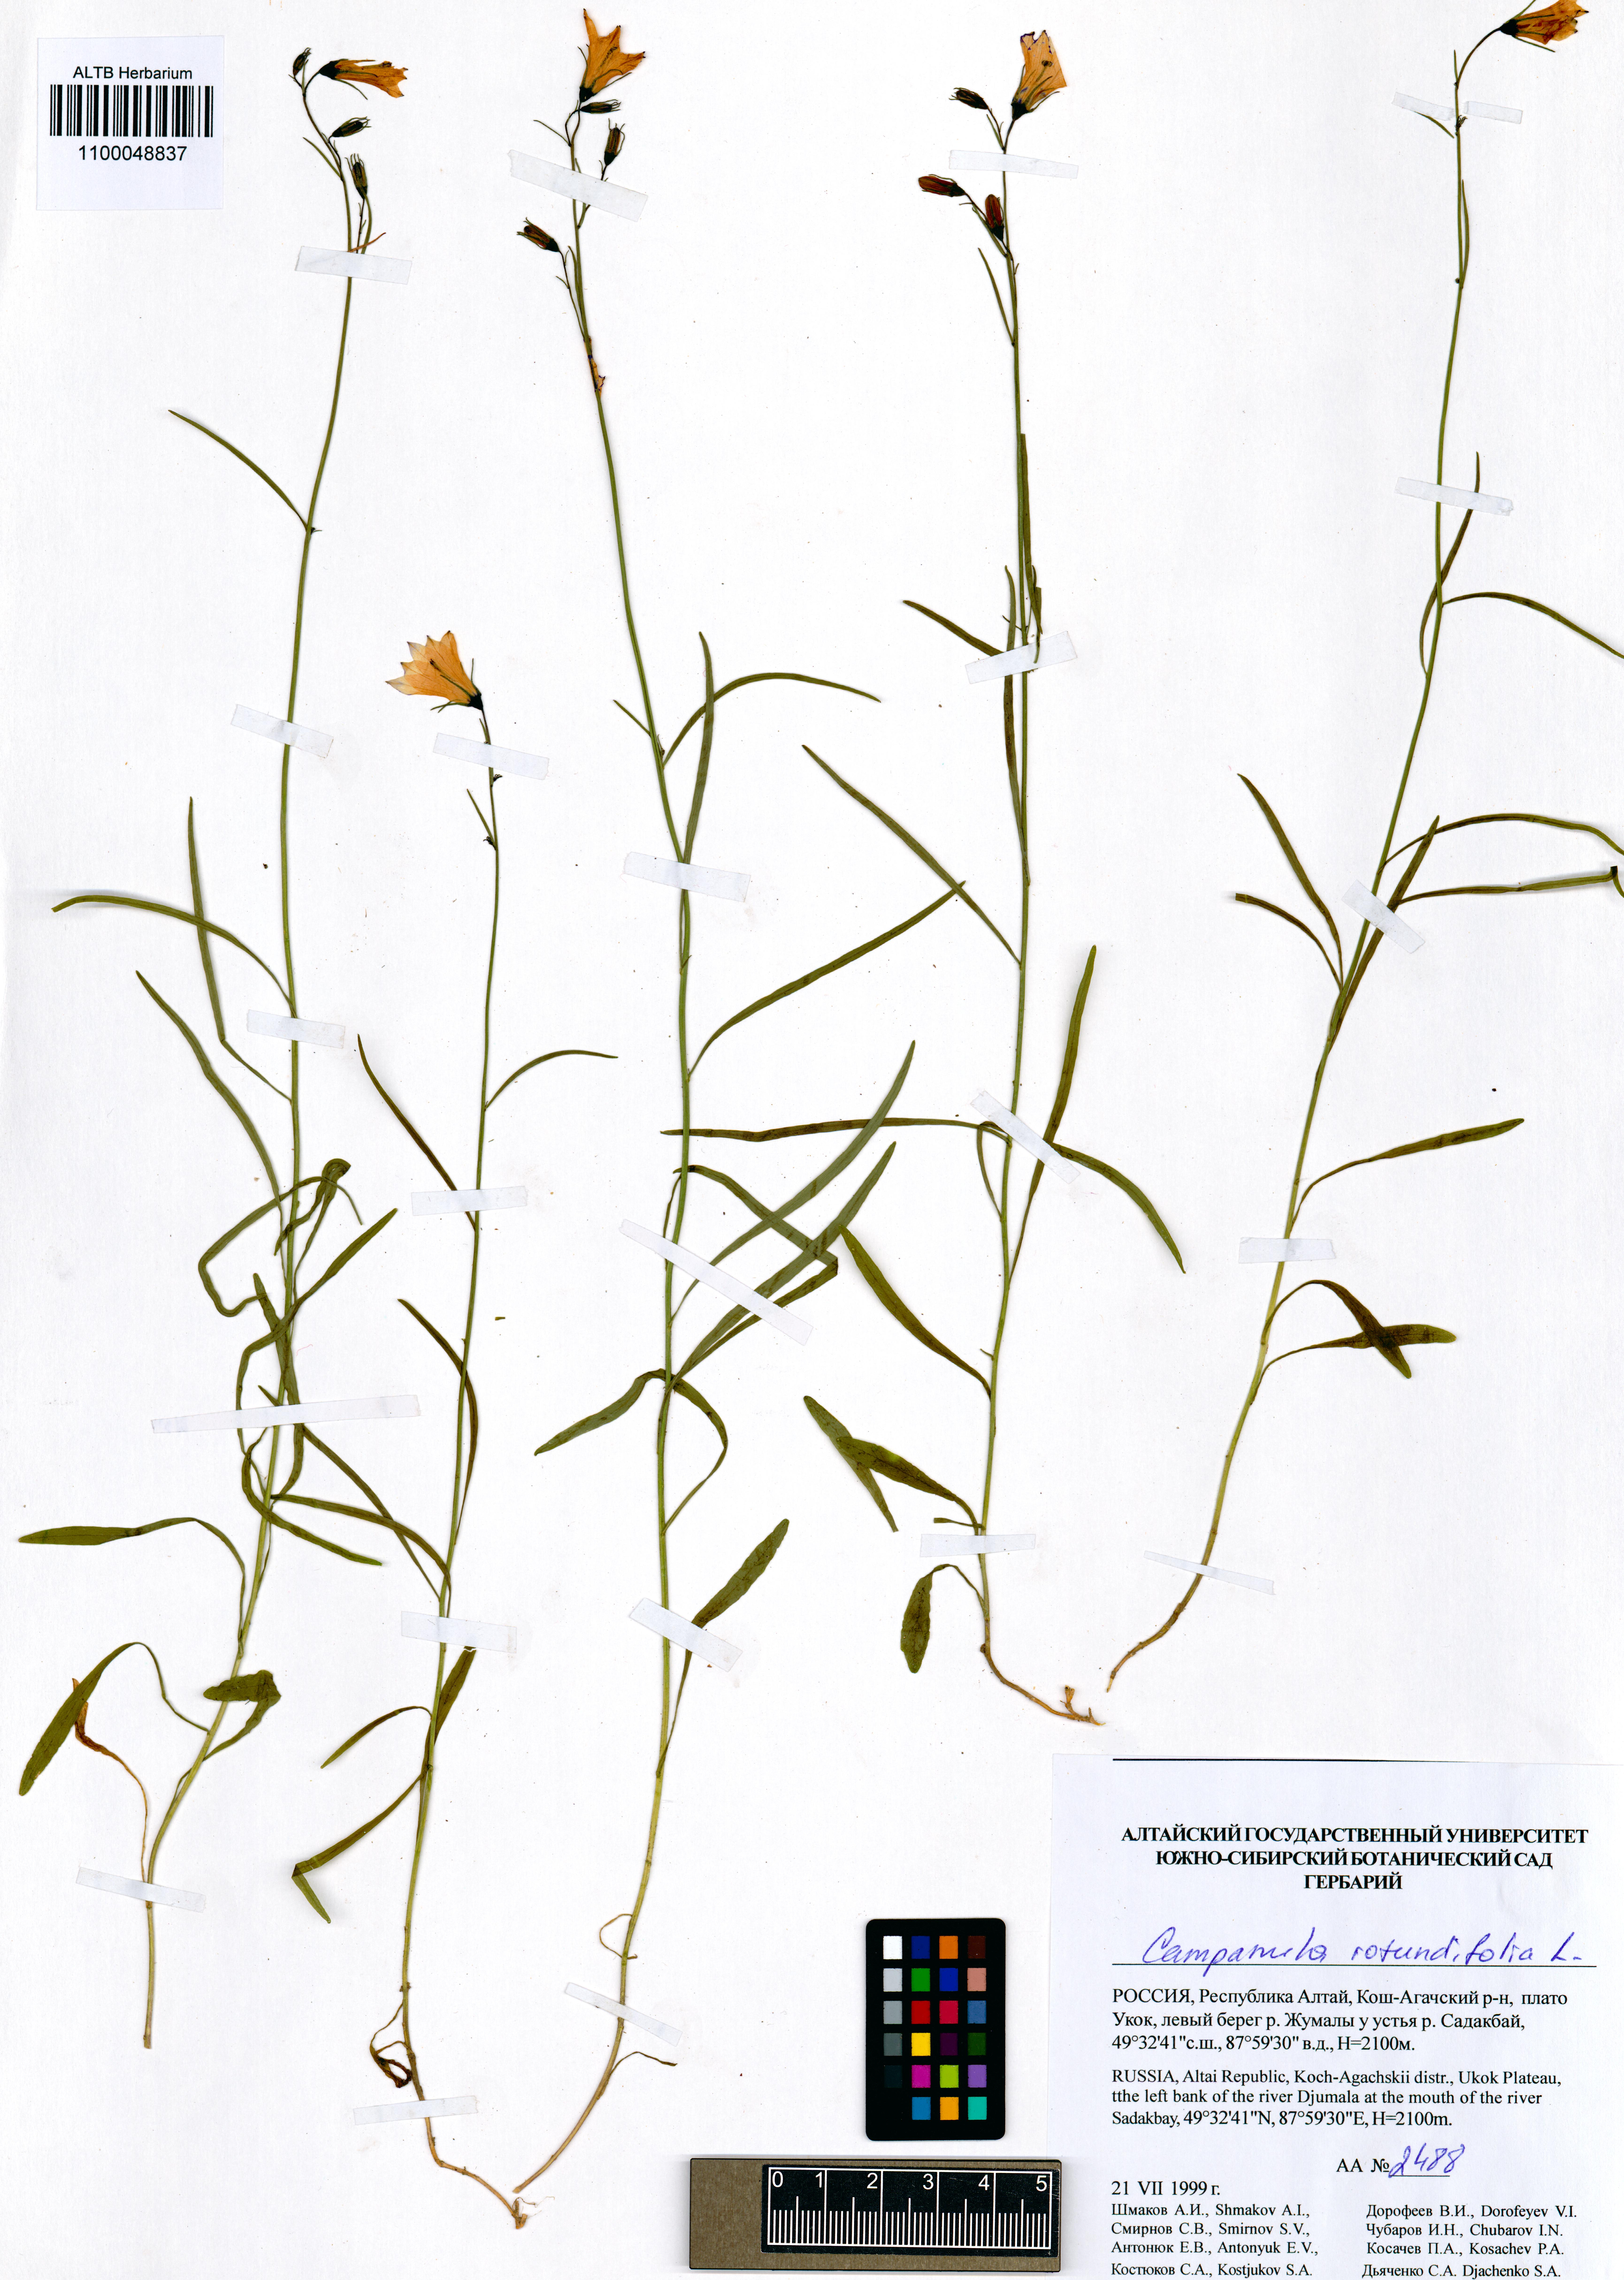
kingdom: Plantae
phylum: Tracheophyta
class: Magnoliopsida
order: Asterales
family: Campanulaceae
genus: Campanula
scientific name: Campanula rotundifolia
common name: Harebell
